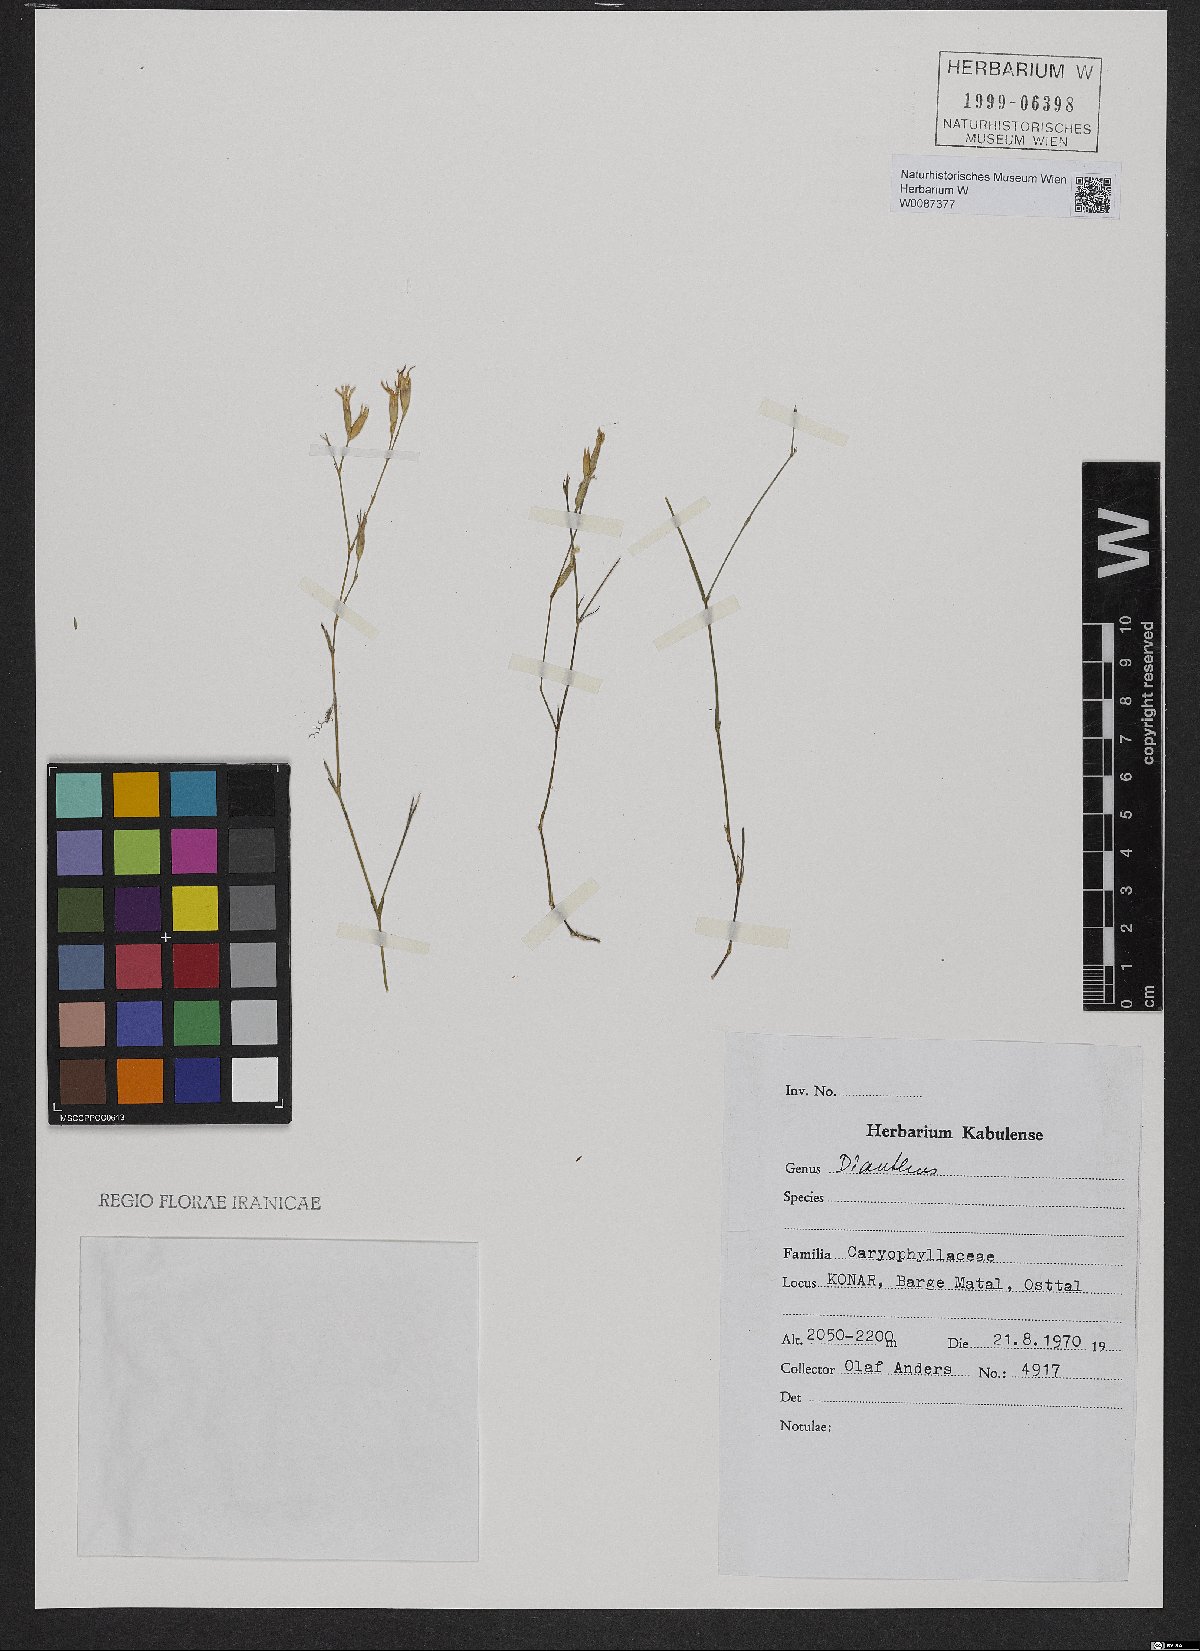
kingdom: Plantae
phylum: Tracheophyta
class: Magnoliopsida
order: Caryophyllales
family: Caryophyllaceae
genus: Dianthus
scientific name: Dianthus purpureimaculatus
